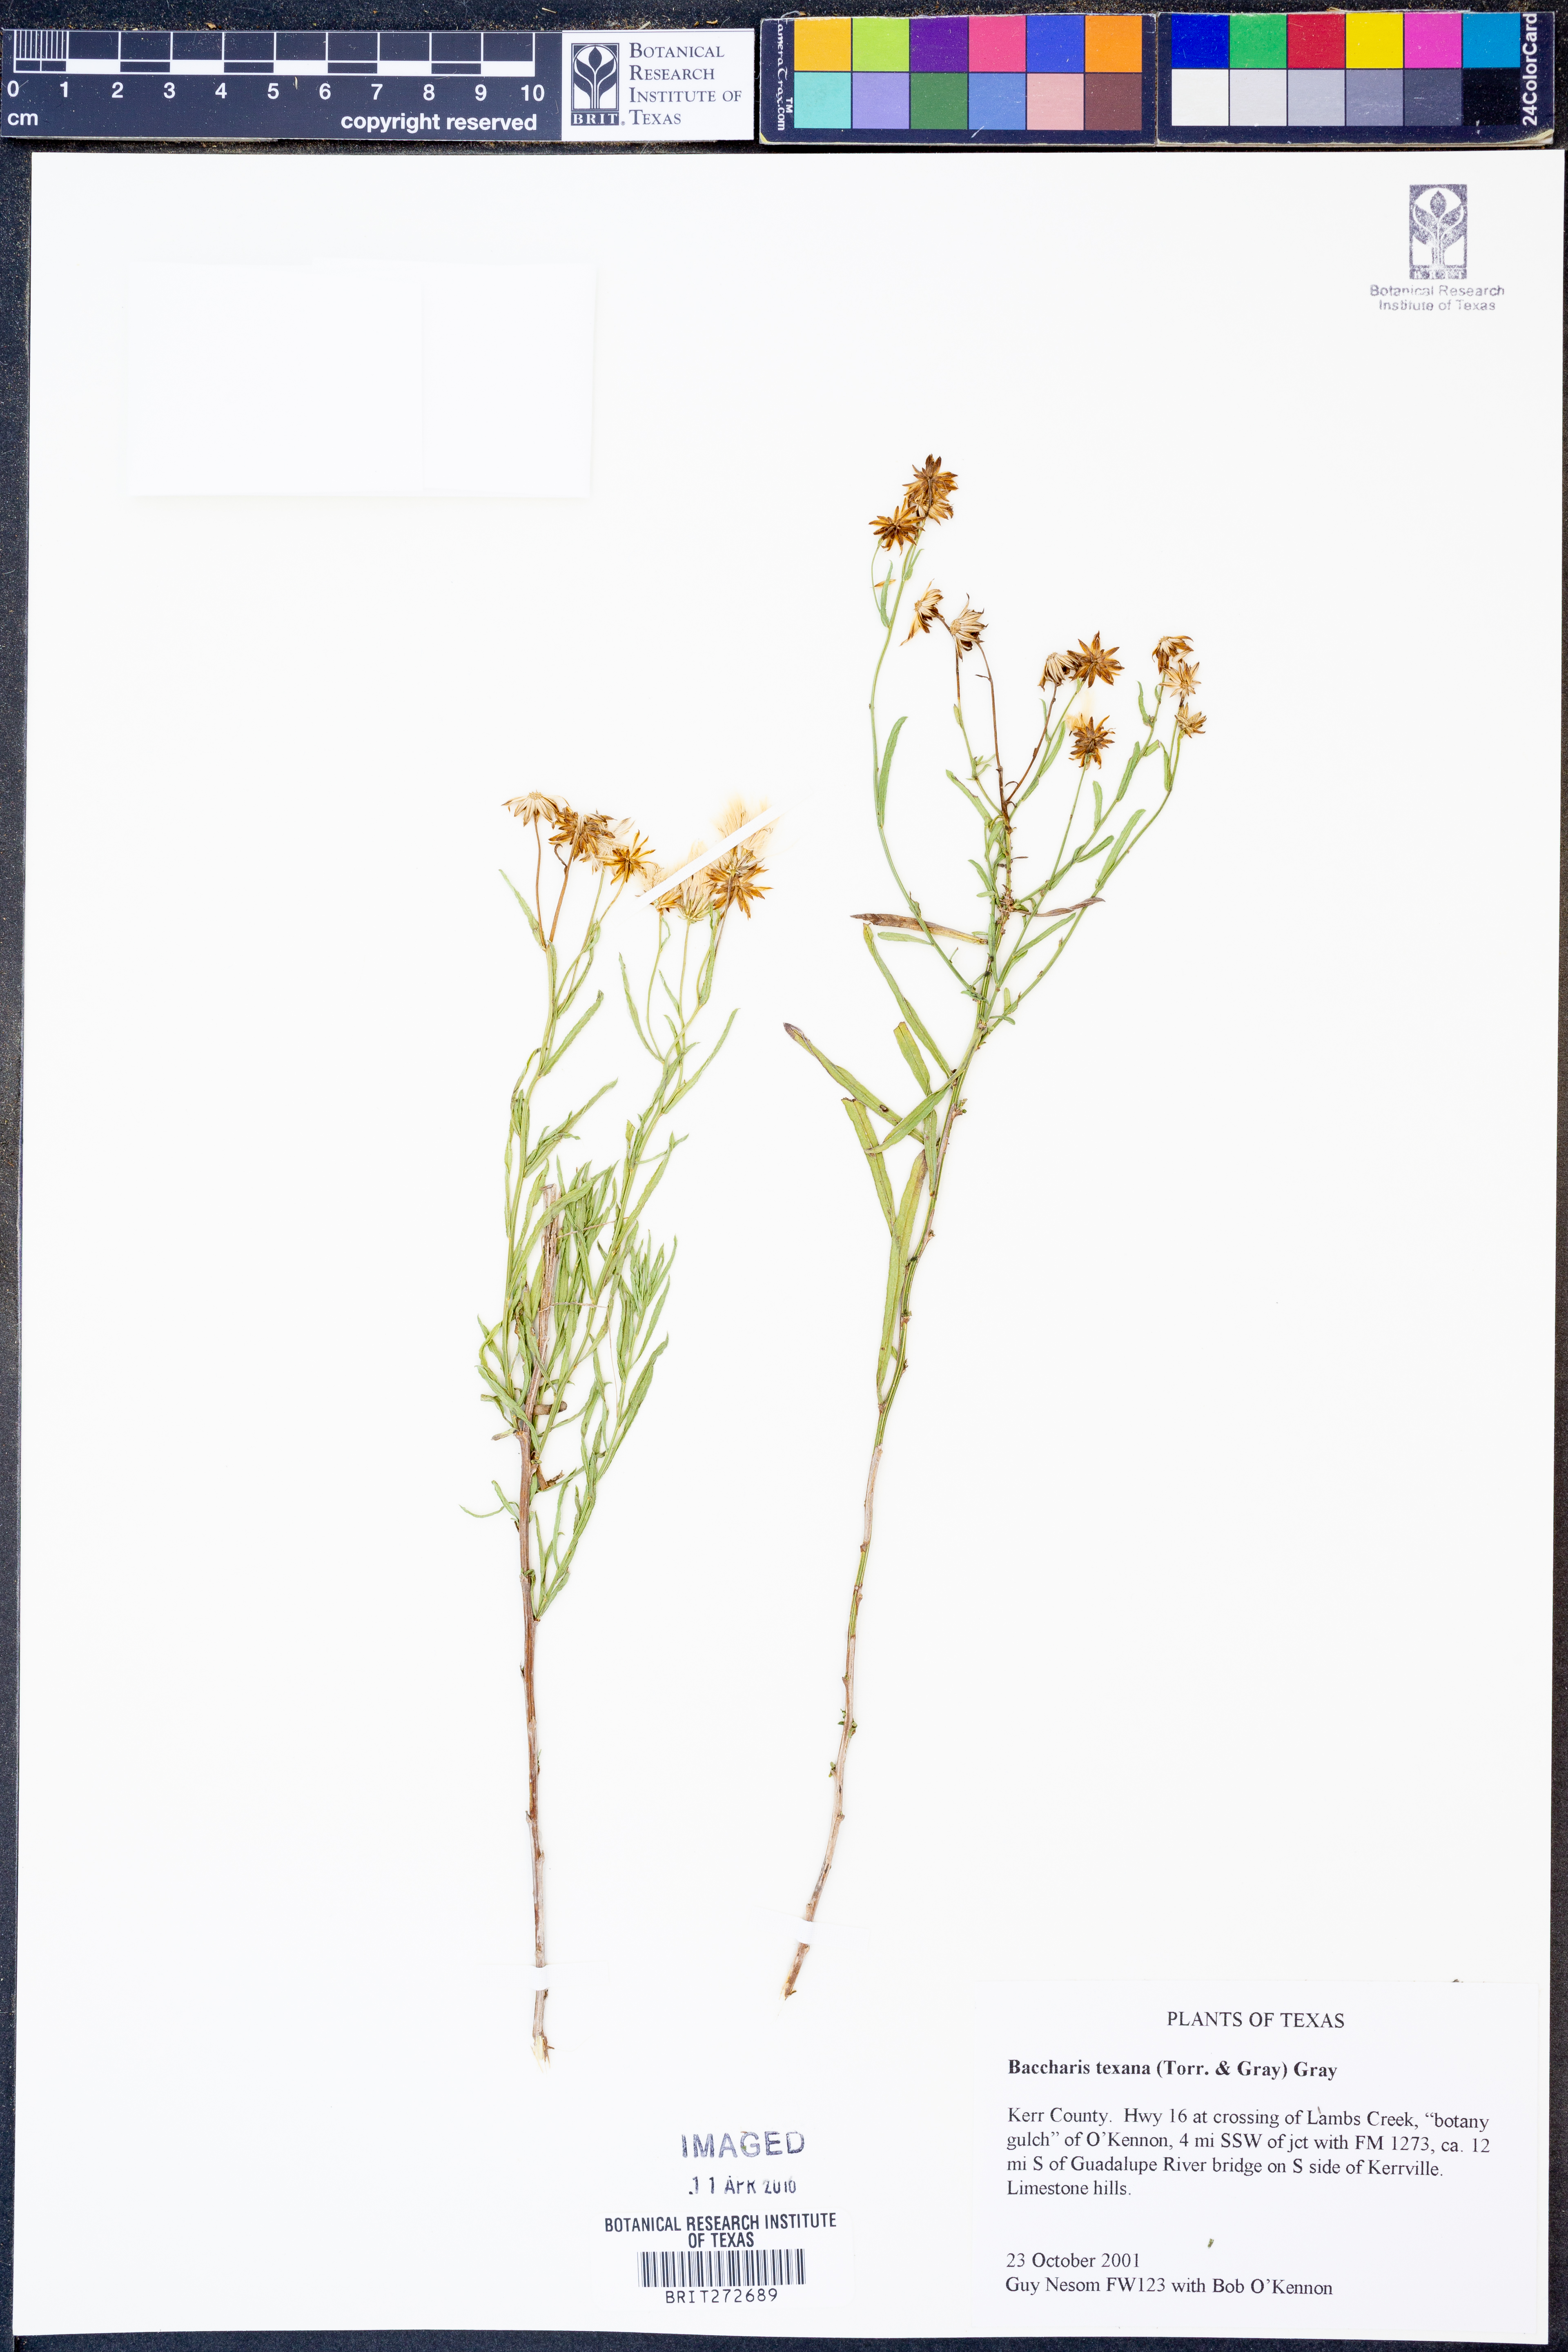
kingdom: Plantae
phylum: Tracheophyta
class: Magnoliopsida
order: Asterales
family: Asteraceae
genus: Baccharis
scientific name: Baccharis texana
